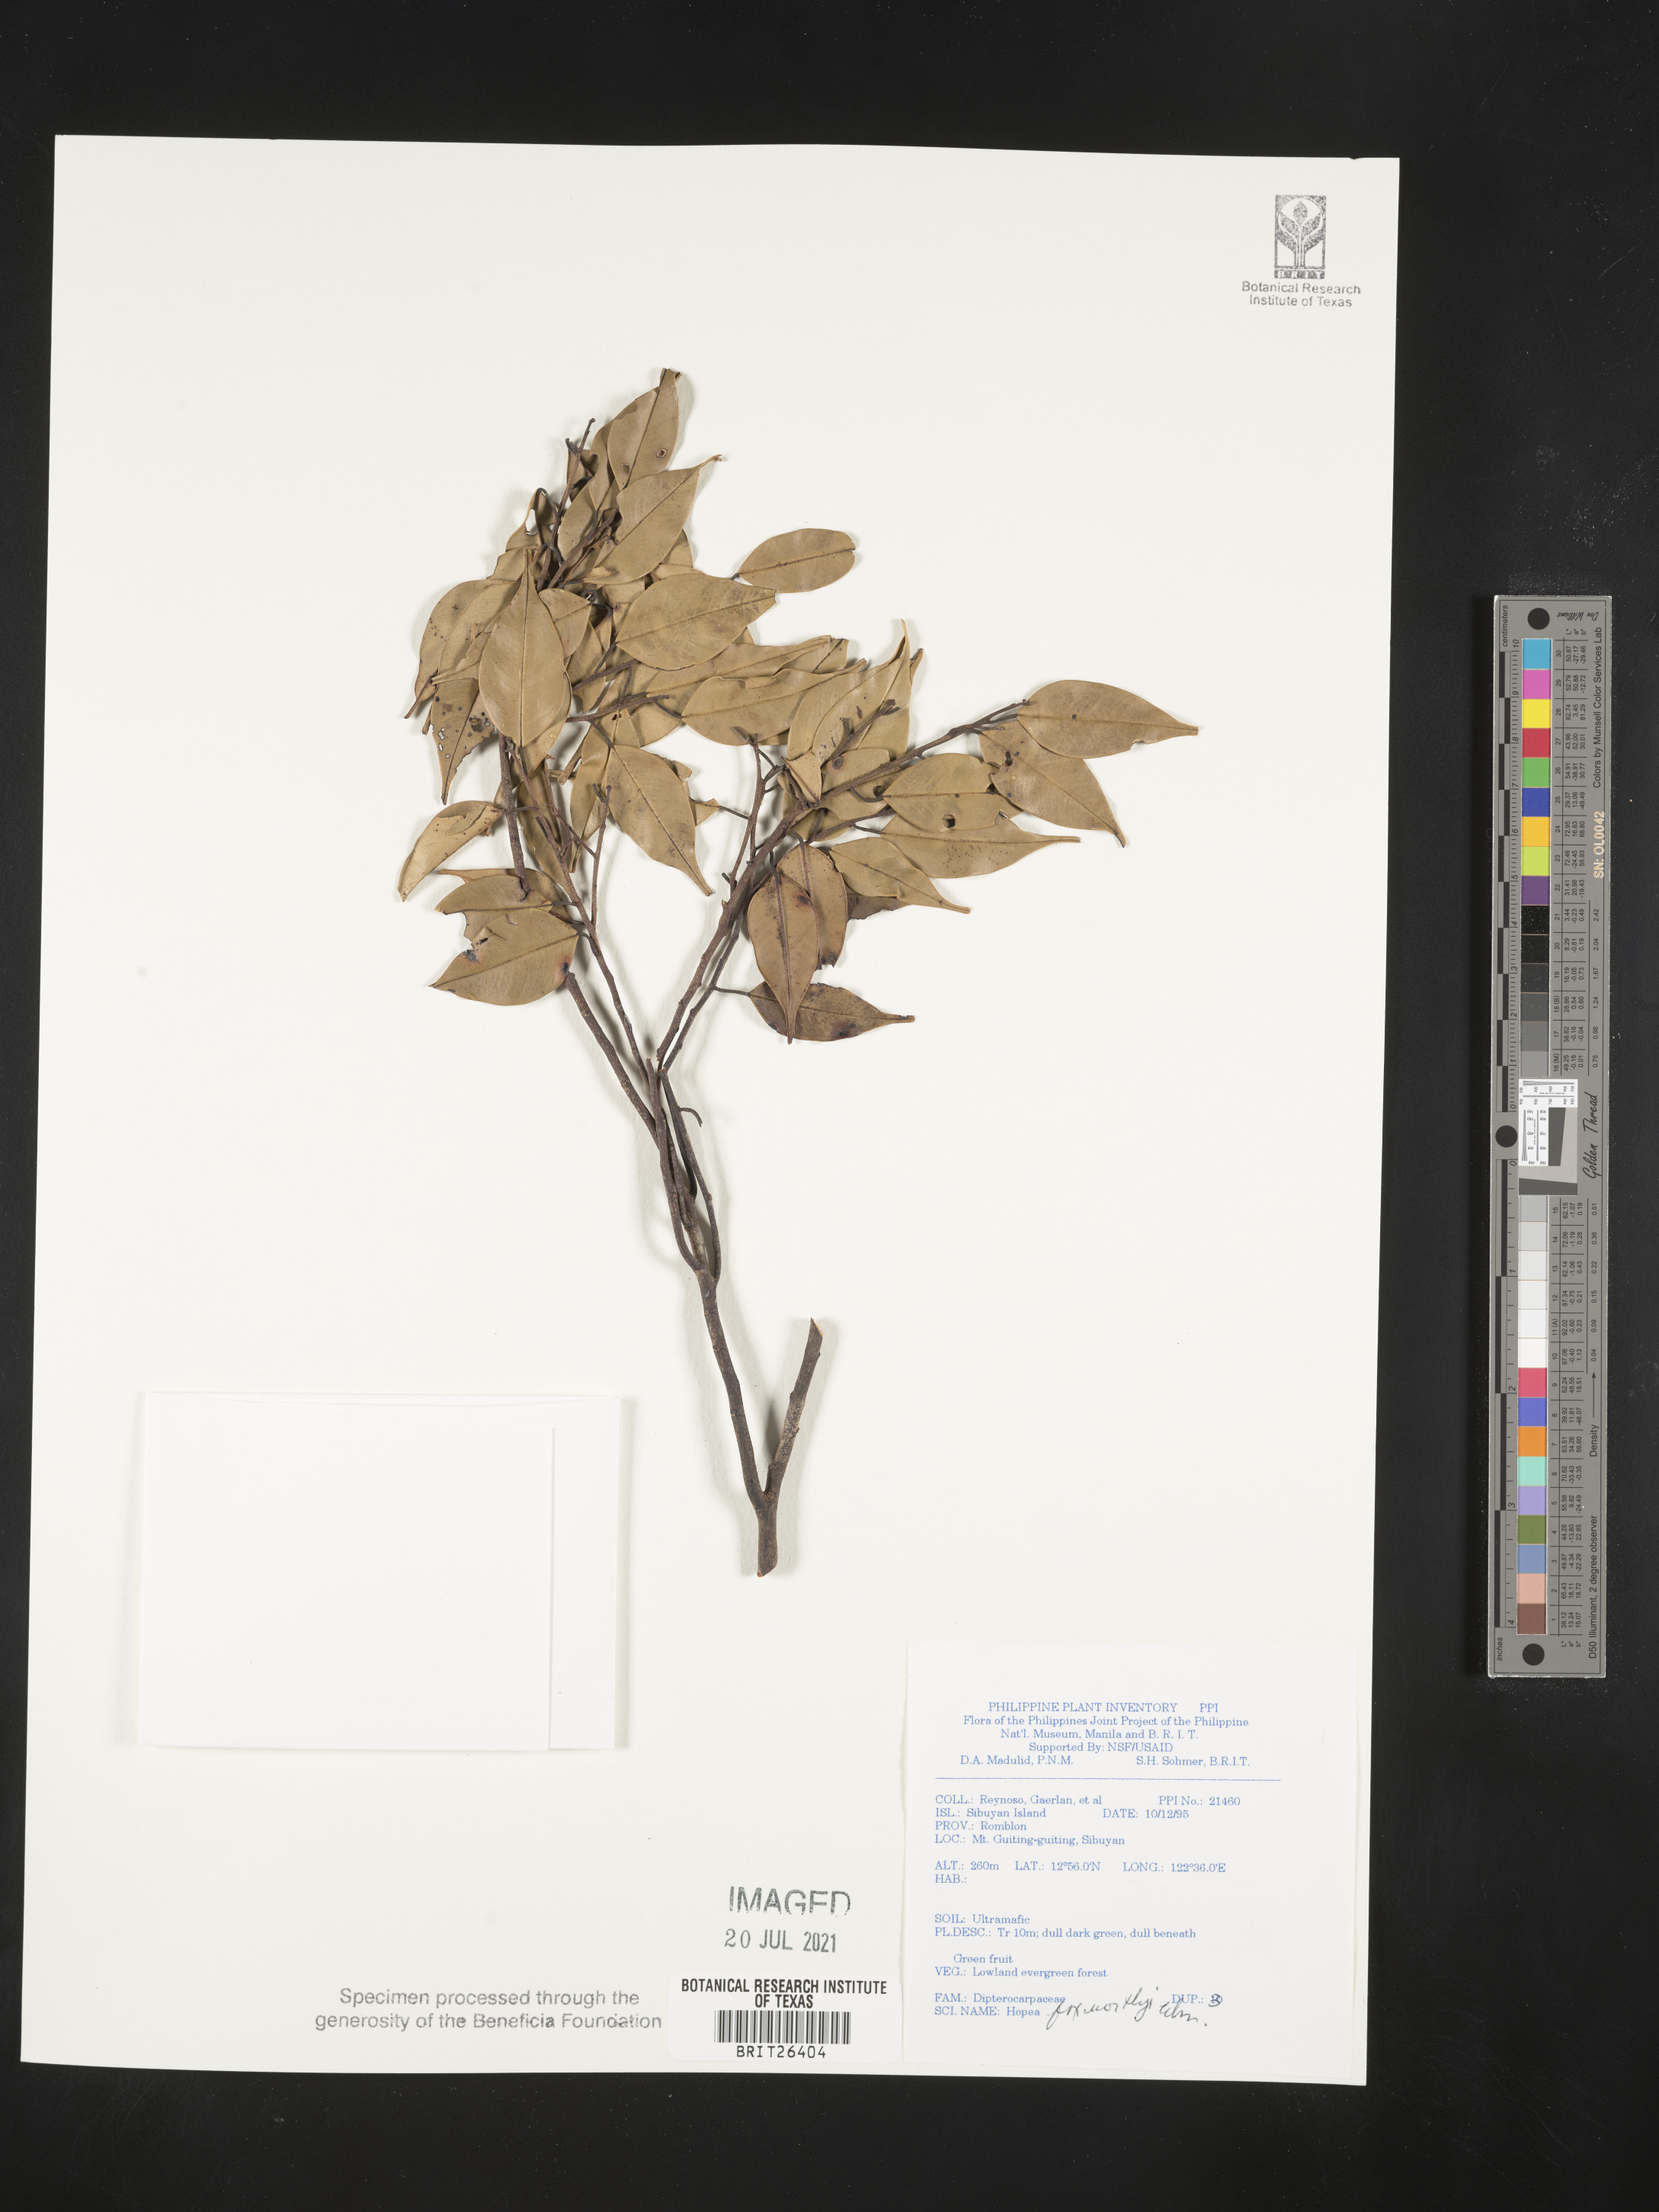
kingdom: Plantae
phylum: Tracheophyta
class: Magnoliopsida
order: Malvales
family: Dipterocarpaceae
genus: Hopea
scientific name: Hopea foxworthyi
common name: Dalingdingan
